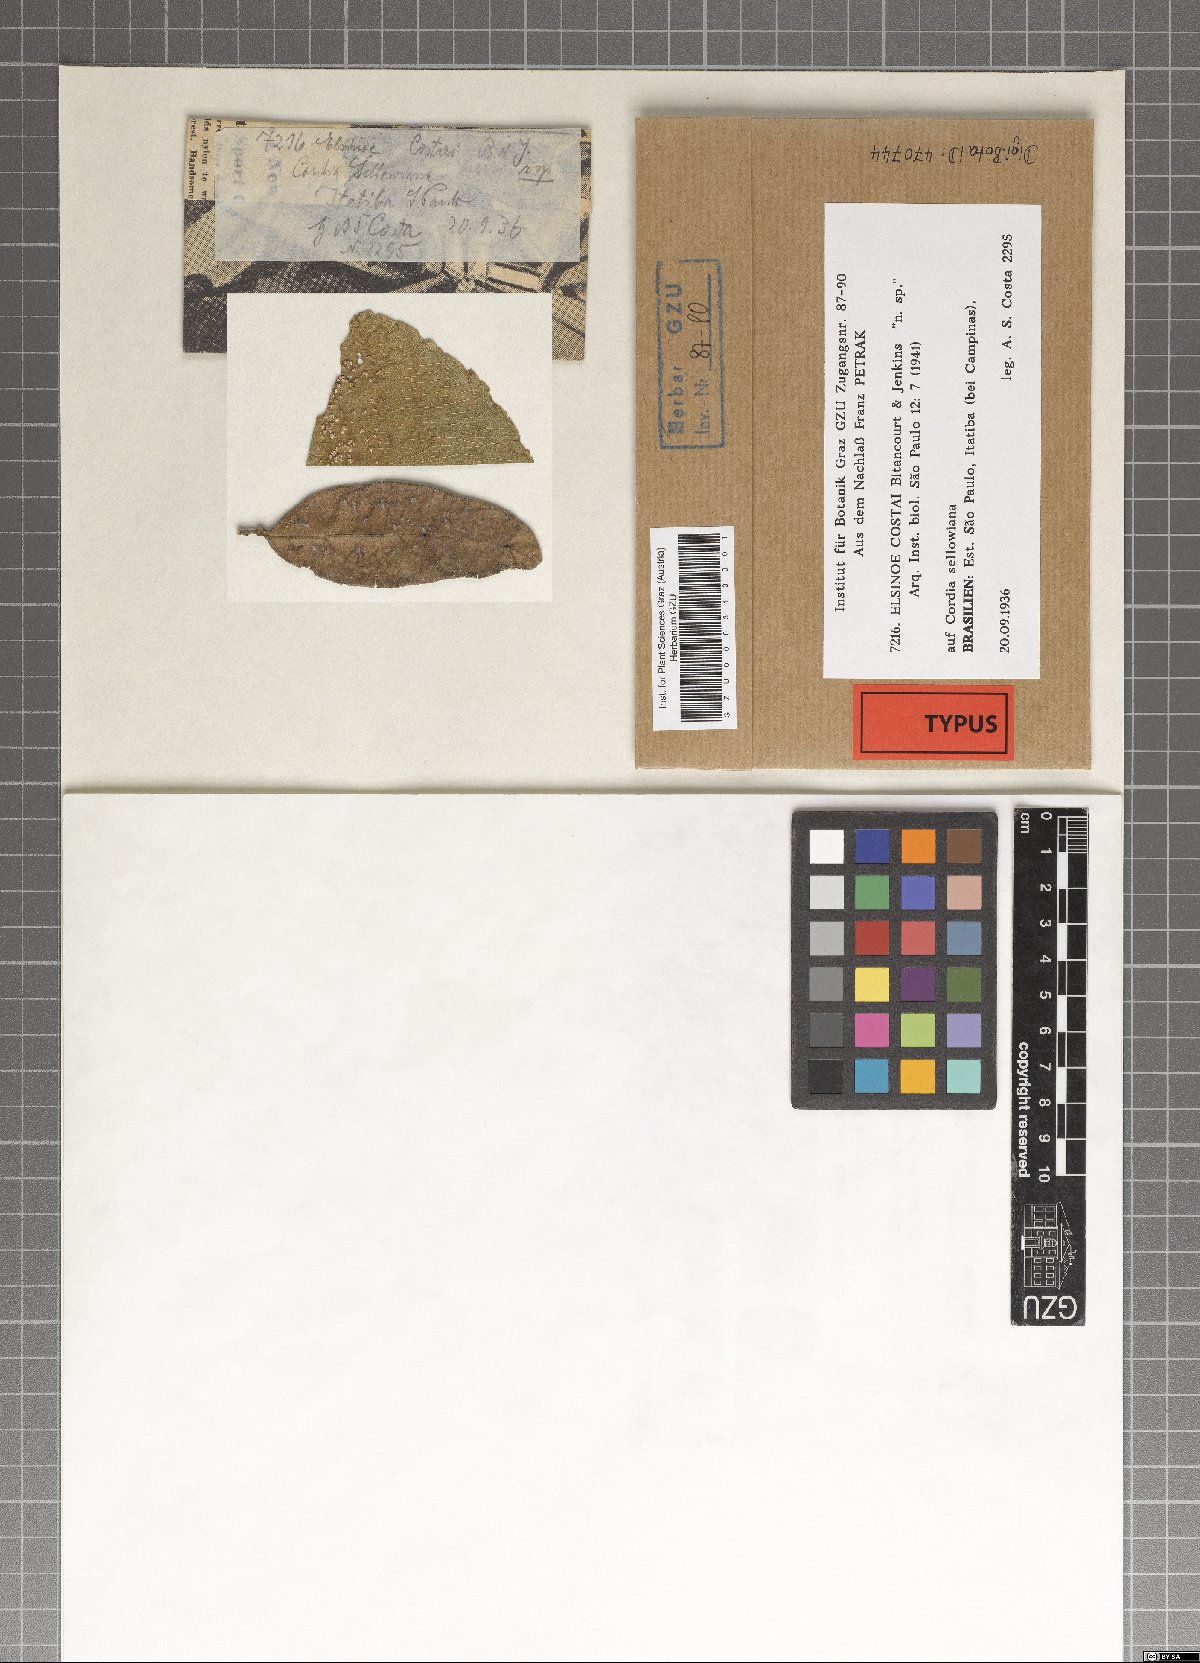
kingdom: Fungi
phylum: Ascomycota
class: Dothideomycetes
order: Myriangiales
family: Elsinoaceae
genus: Elsinoe
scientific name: Elsinoe costai
